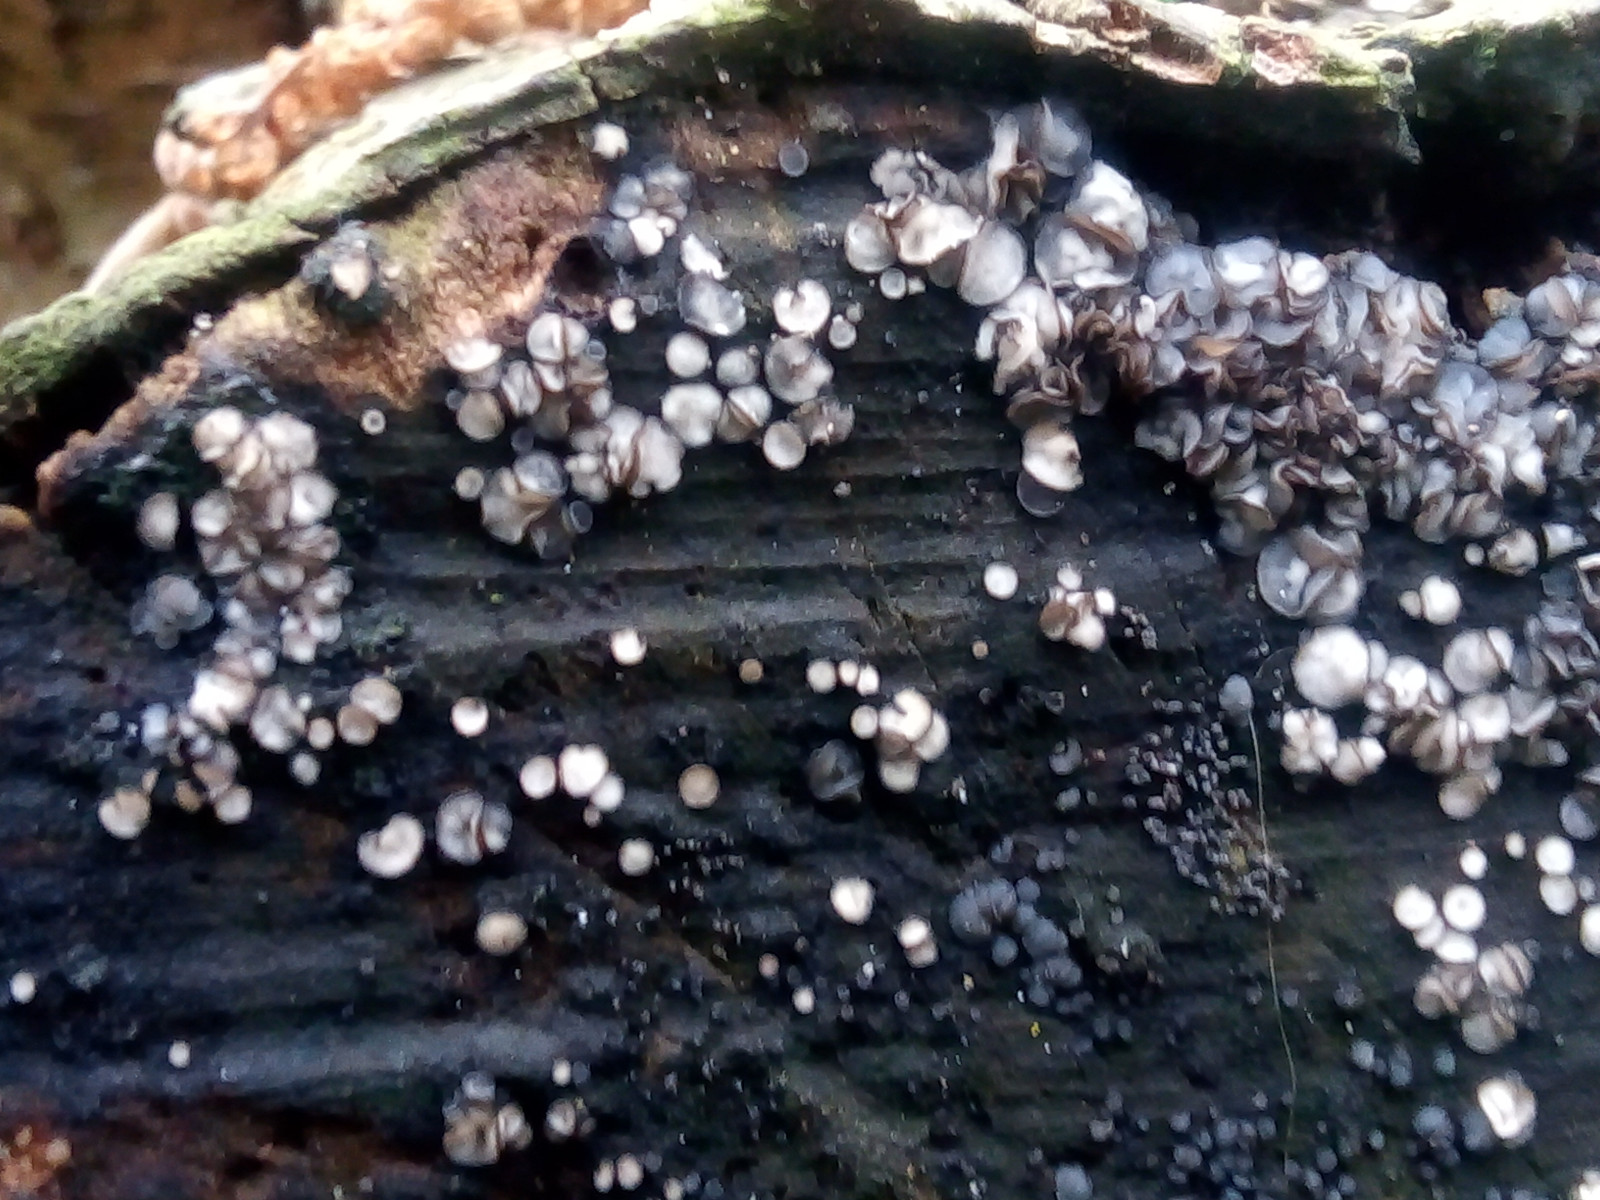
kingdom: Fungi
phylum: Ascomycota
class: Leotiomycetes
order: Helotiales
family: Mollisiaceae
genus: Mollisia
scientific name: Mollisia
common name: gråskive
